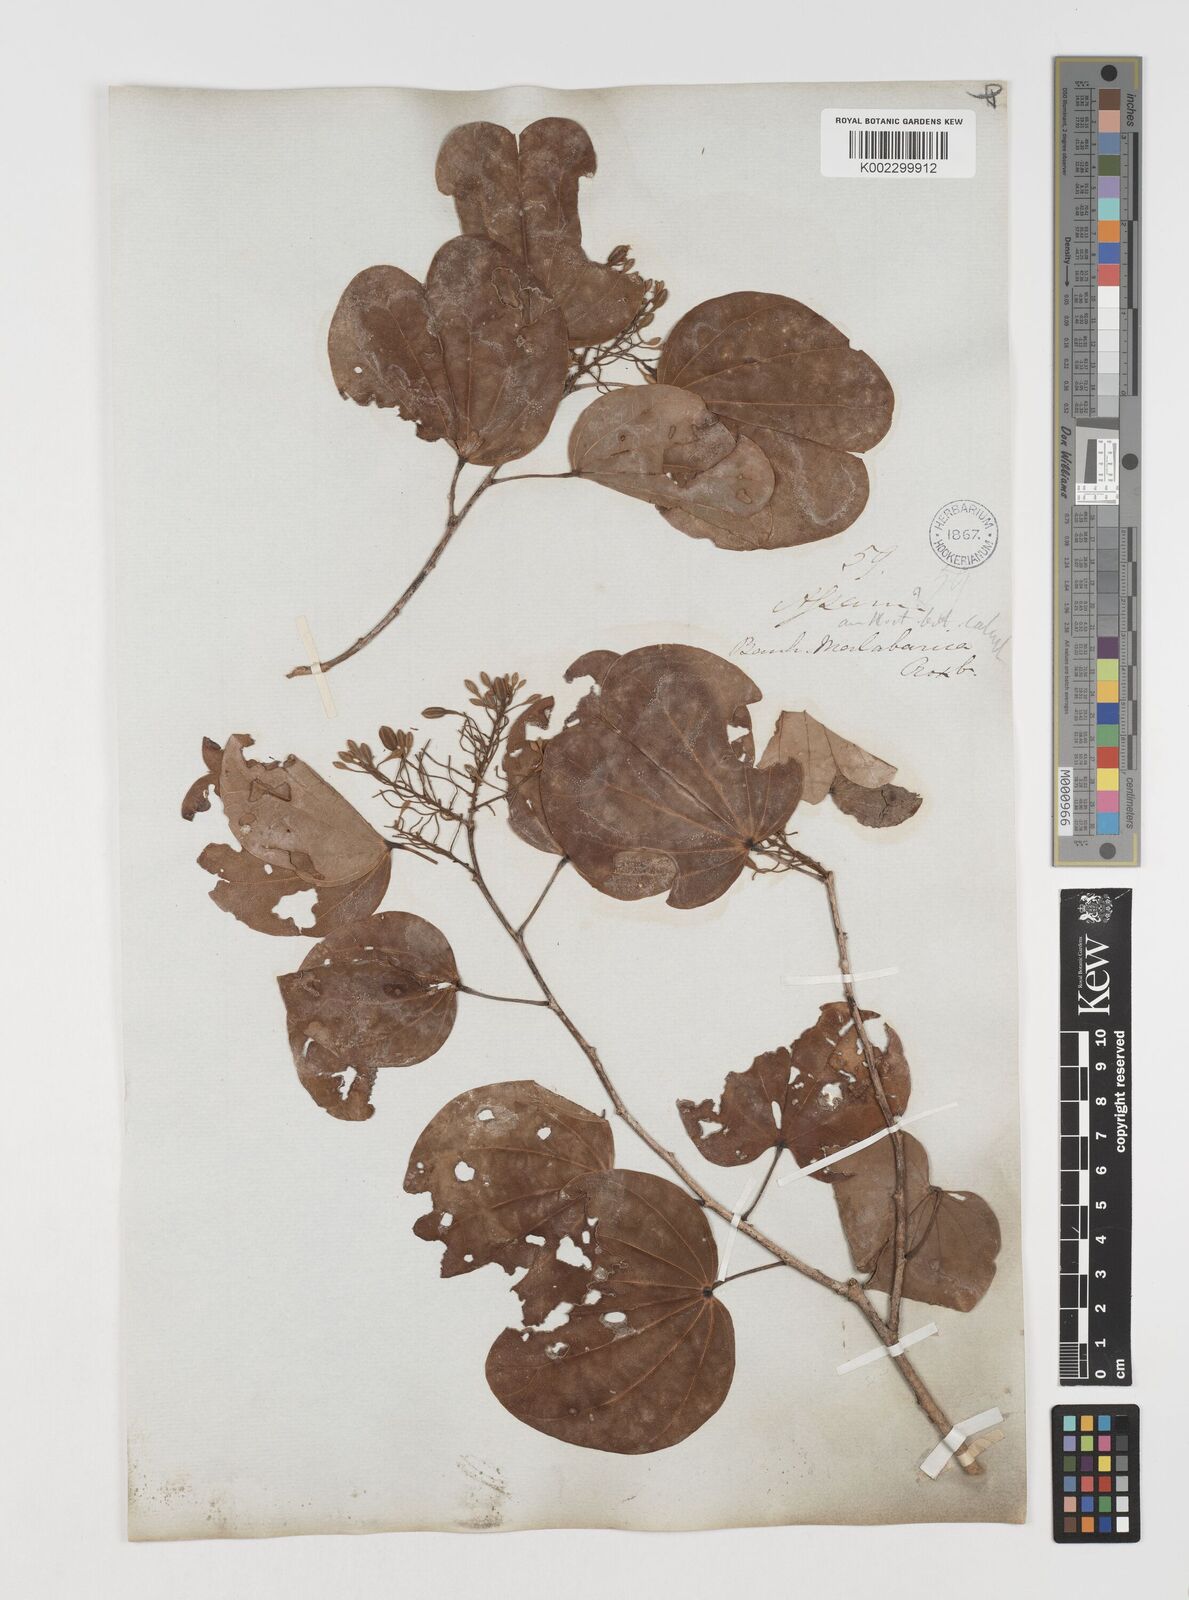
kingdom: Plantae
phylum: Tracheophyta
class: Magnoliopsida
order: Fabales
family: Fabaceae
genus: Piliostigma
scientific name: Piliostigma malabaricum
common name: Malabar bauhinia
